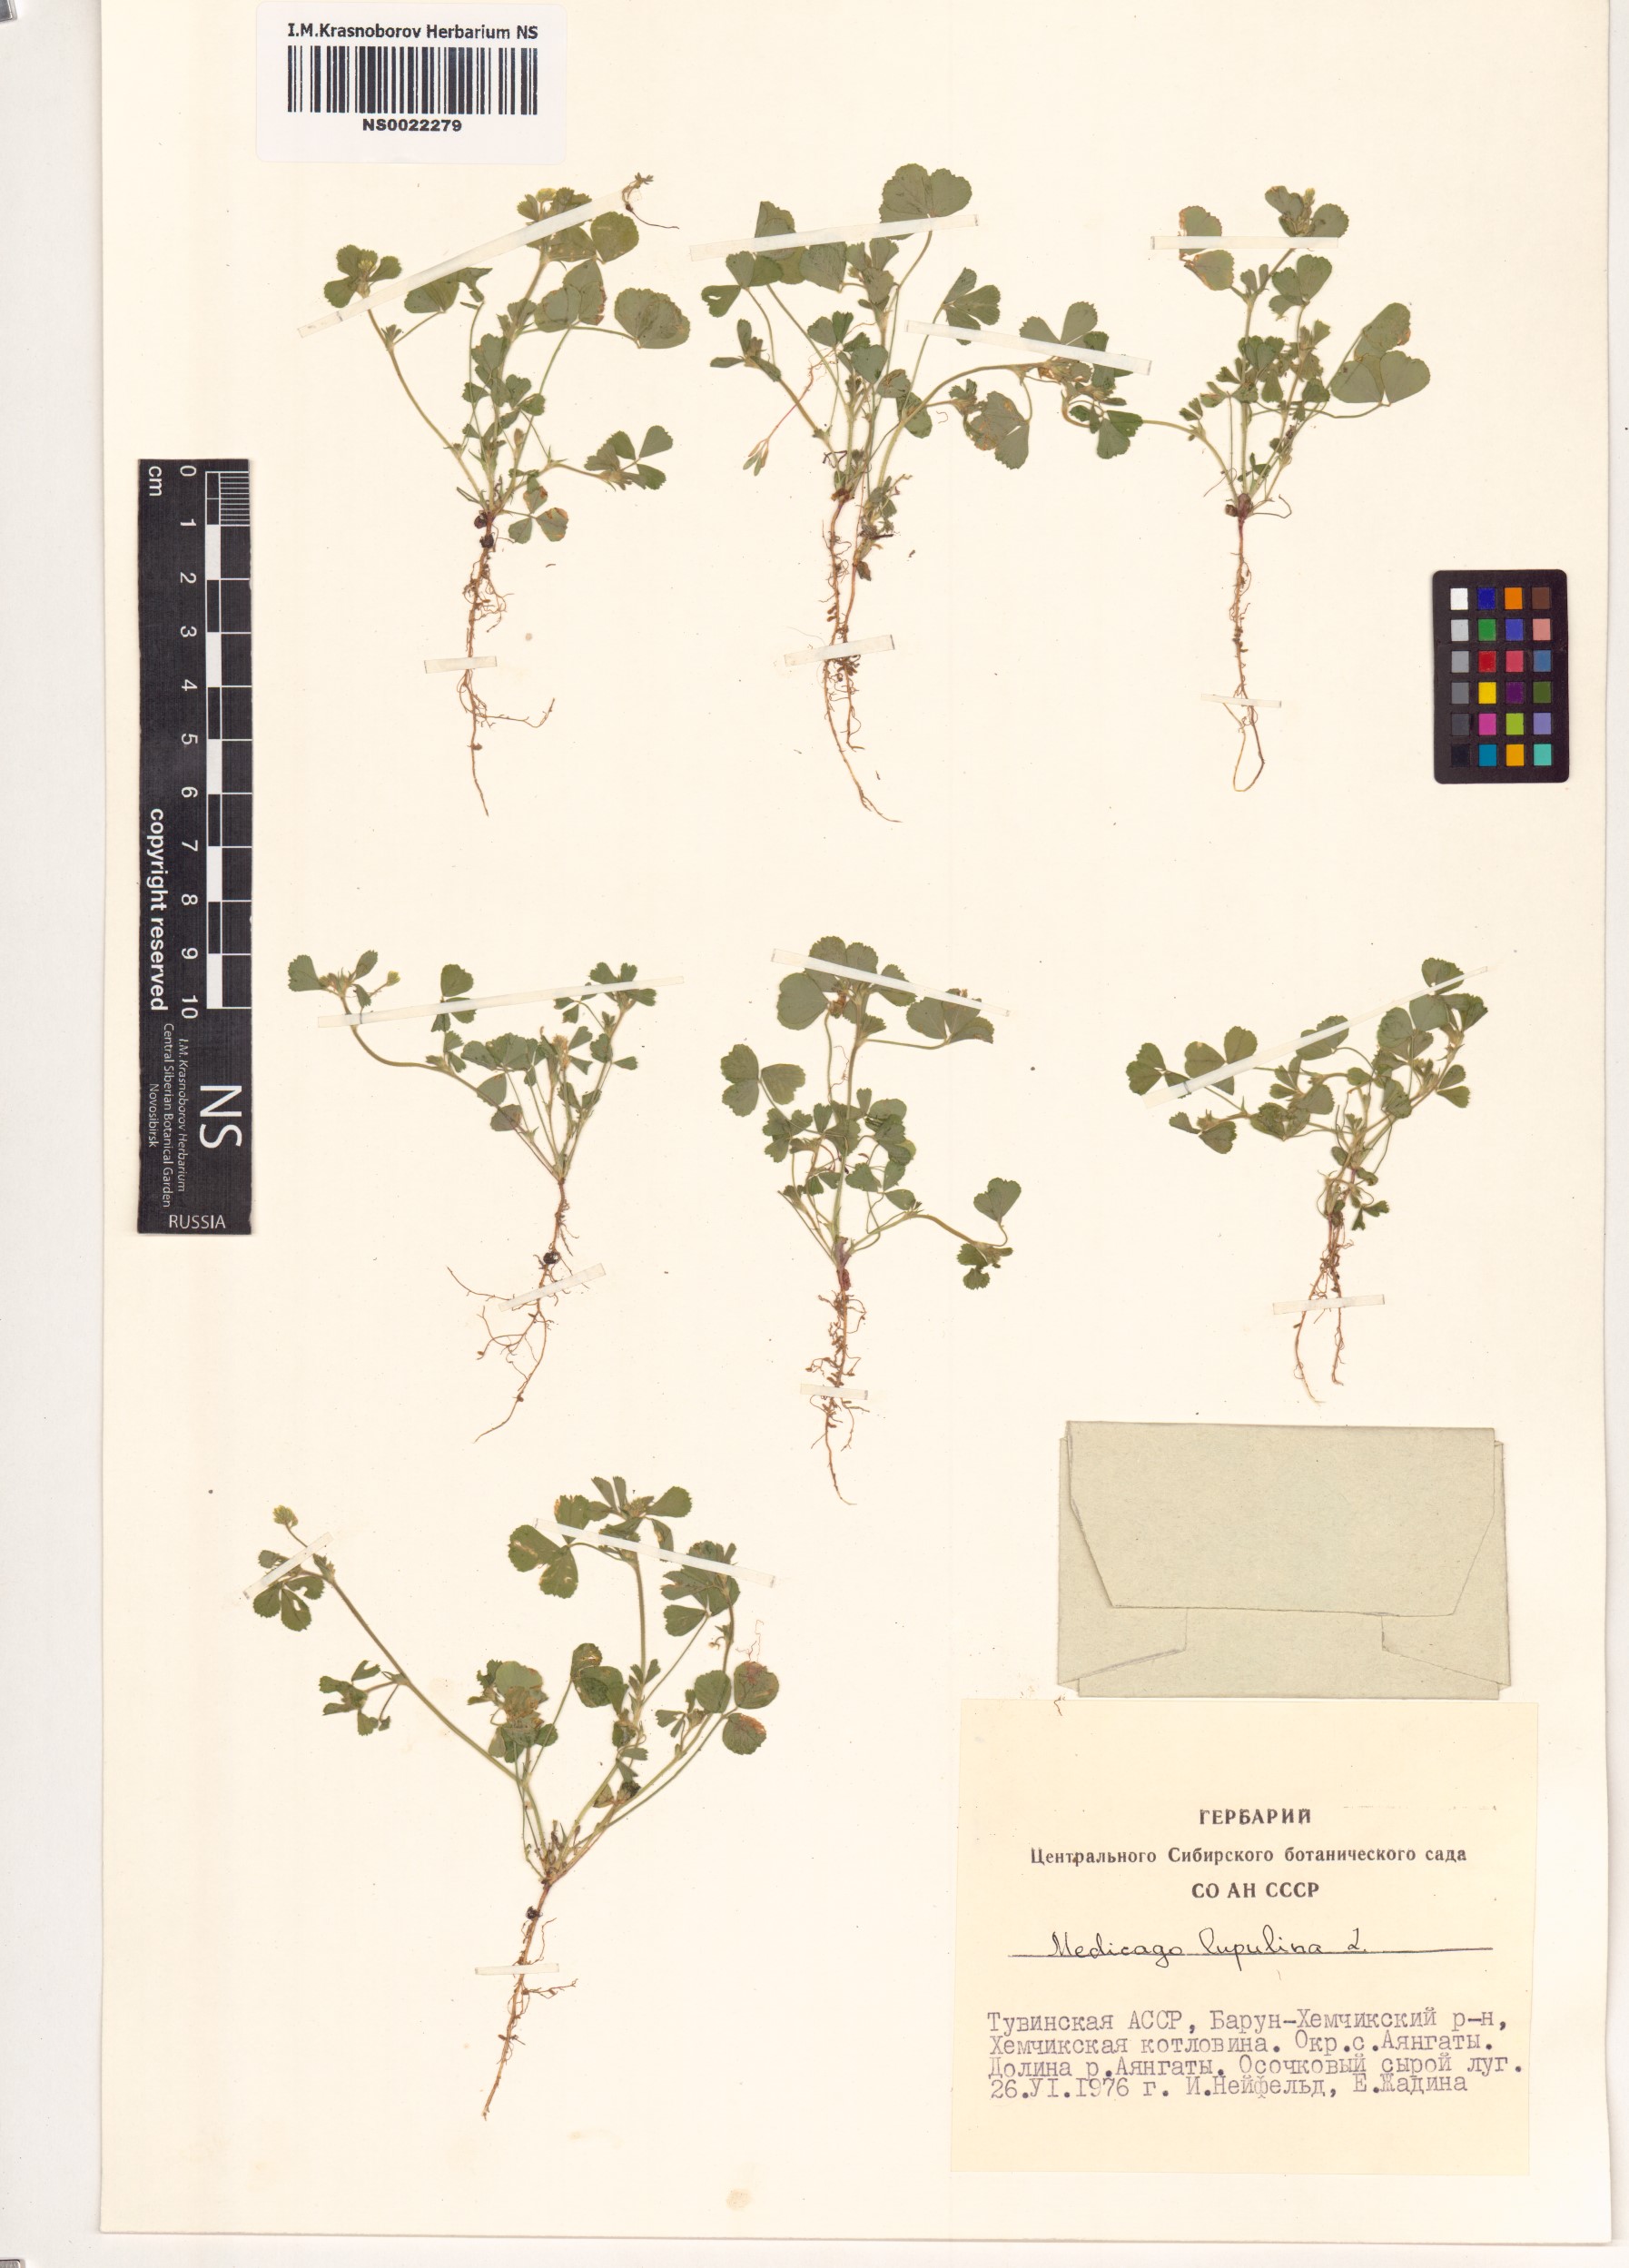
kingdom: Plantae
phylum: Tracheophyta
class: Magnoliopsida
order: Fabales
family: Fabaceae
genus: Medicago
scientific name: Medicago lupulina
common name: Black medick
